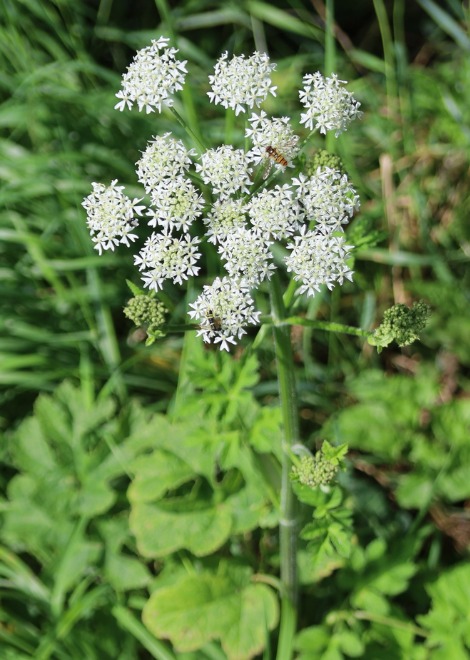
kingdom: Plantae
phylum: Tracheophyta
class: Magnoliopsida
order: Apiales
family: Apiaceae
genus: Heracleum
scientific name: Heracleum sphondylium
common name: Almindelig bjørneklo
